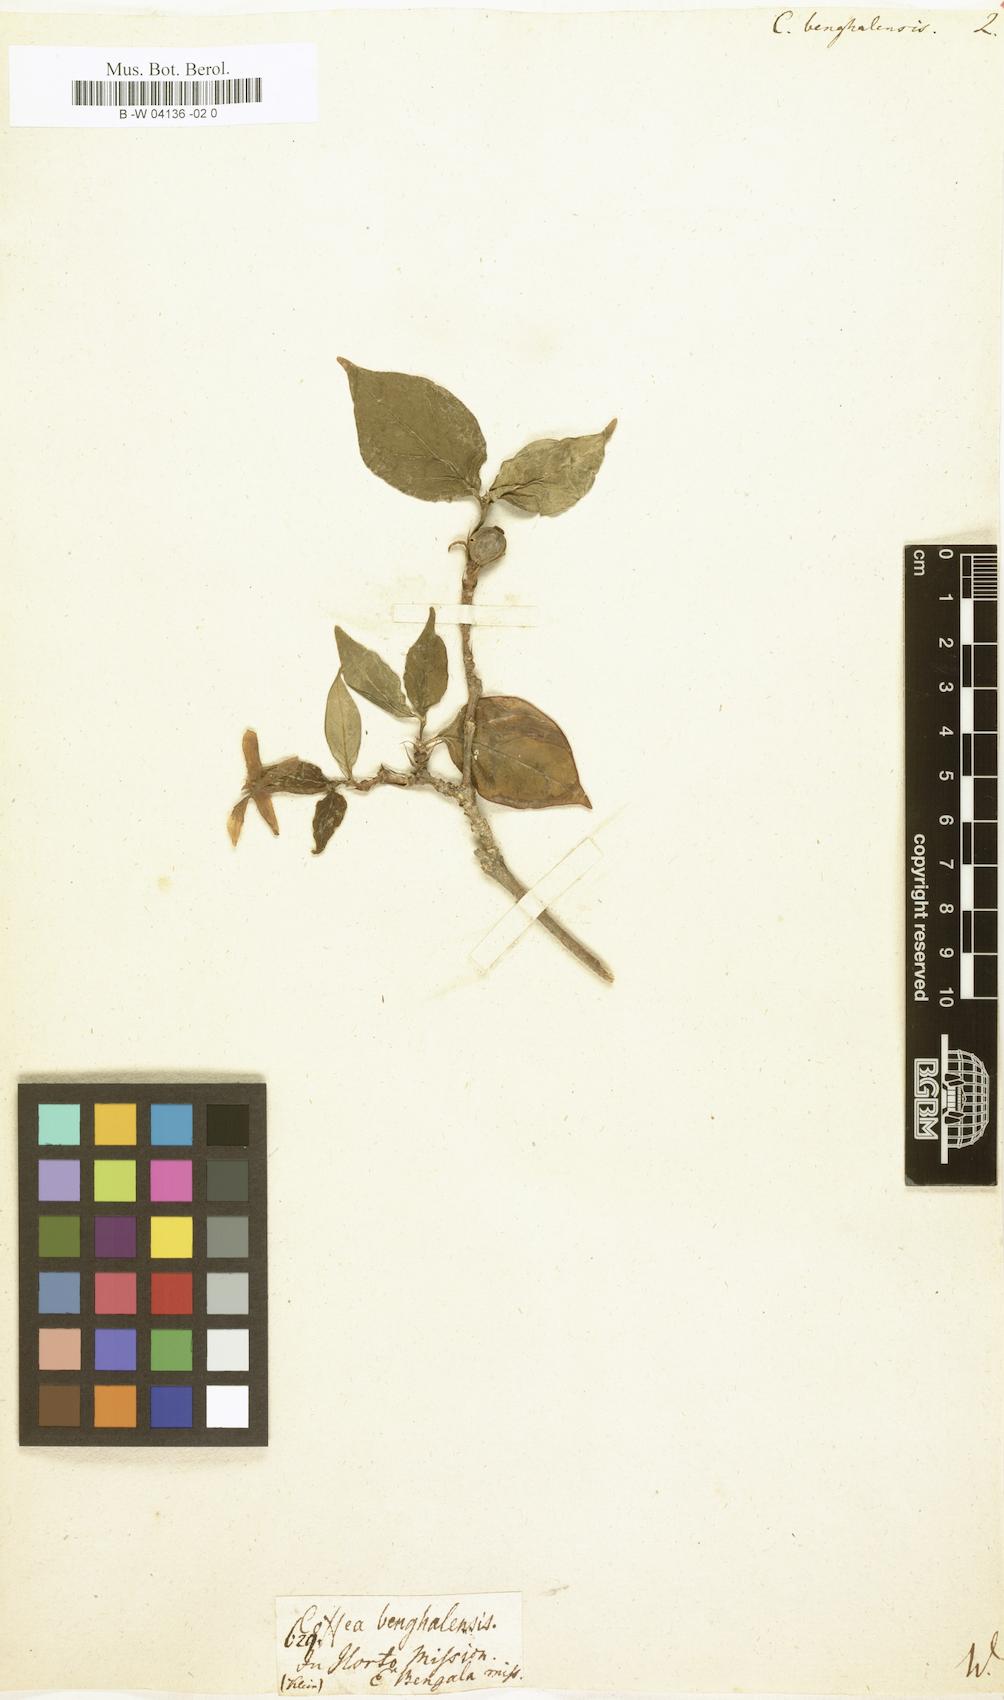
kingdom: Plantae
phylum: Tracheophyta
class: Magnoliopsida
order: Gentianales
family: Rubiaceae
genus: Coffea
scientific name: Coffea benghalensis
